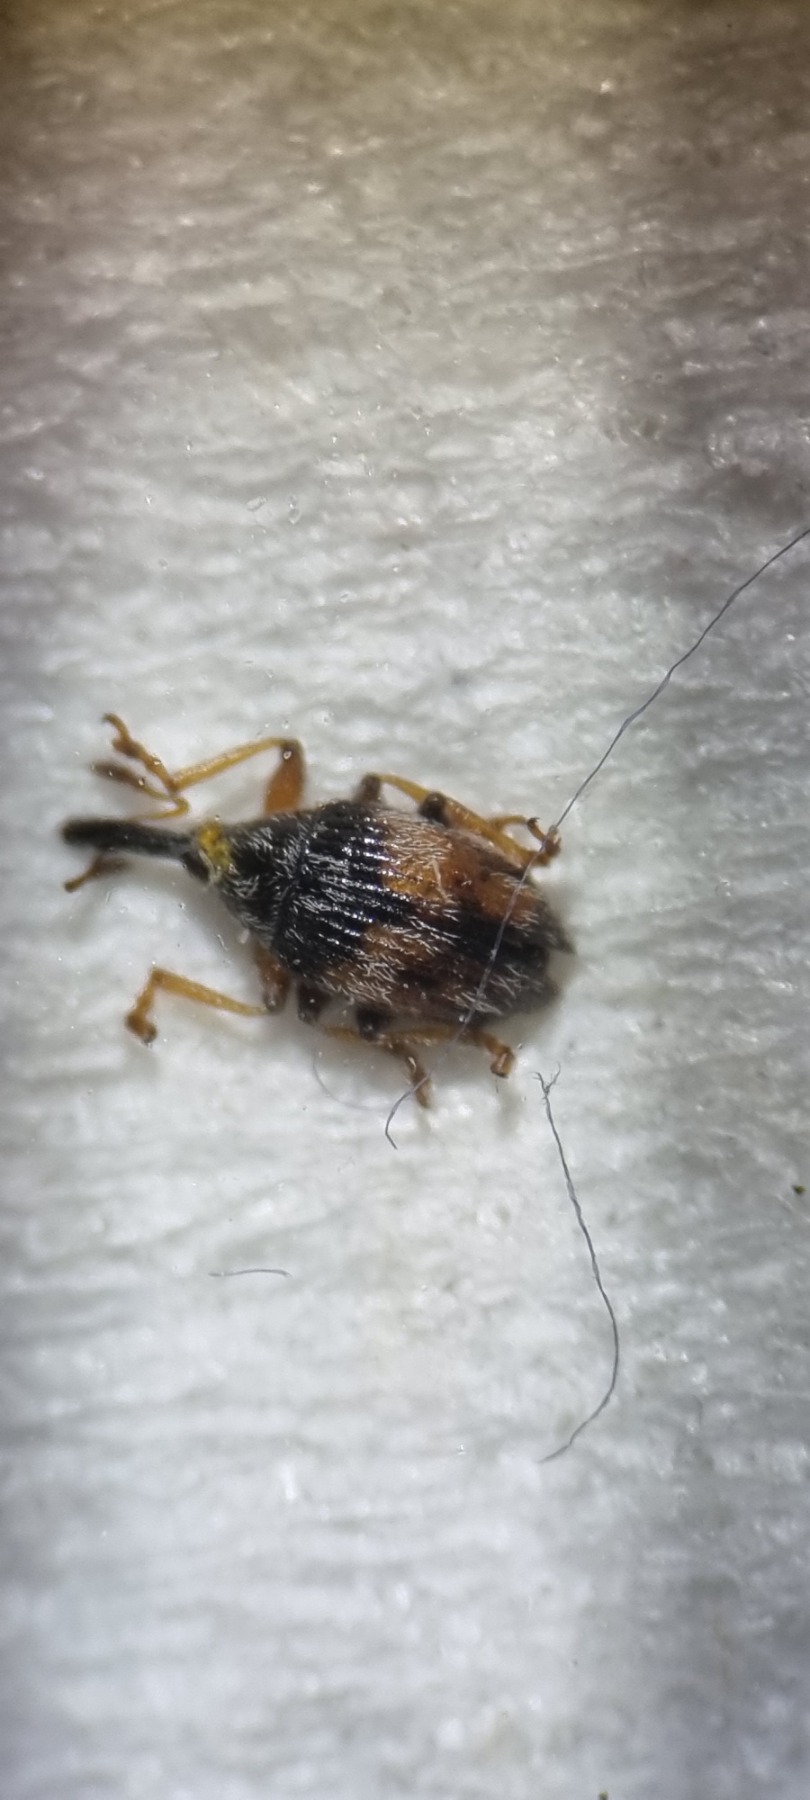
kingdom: Animalia
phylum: Arthropoda
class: Insecta
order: Coleoptera
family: Brentidae
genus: Nanophyes
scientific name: Nanophyes marmoratus
